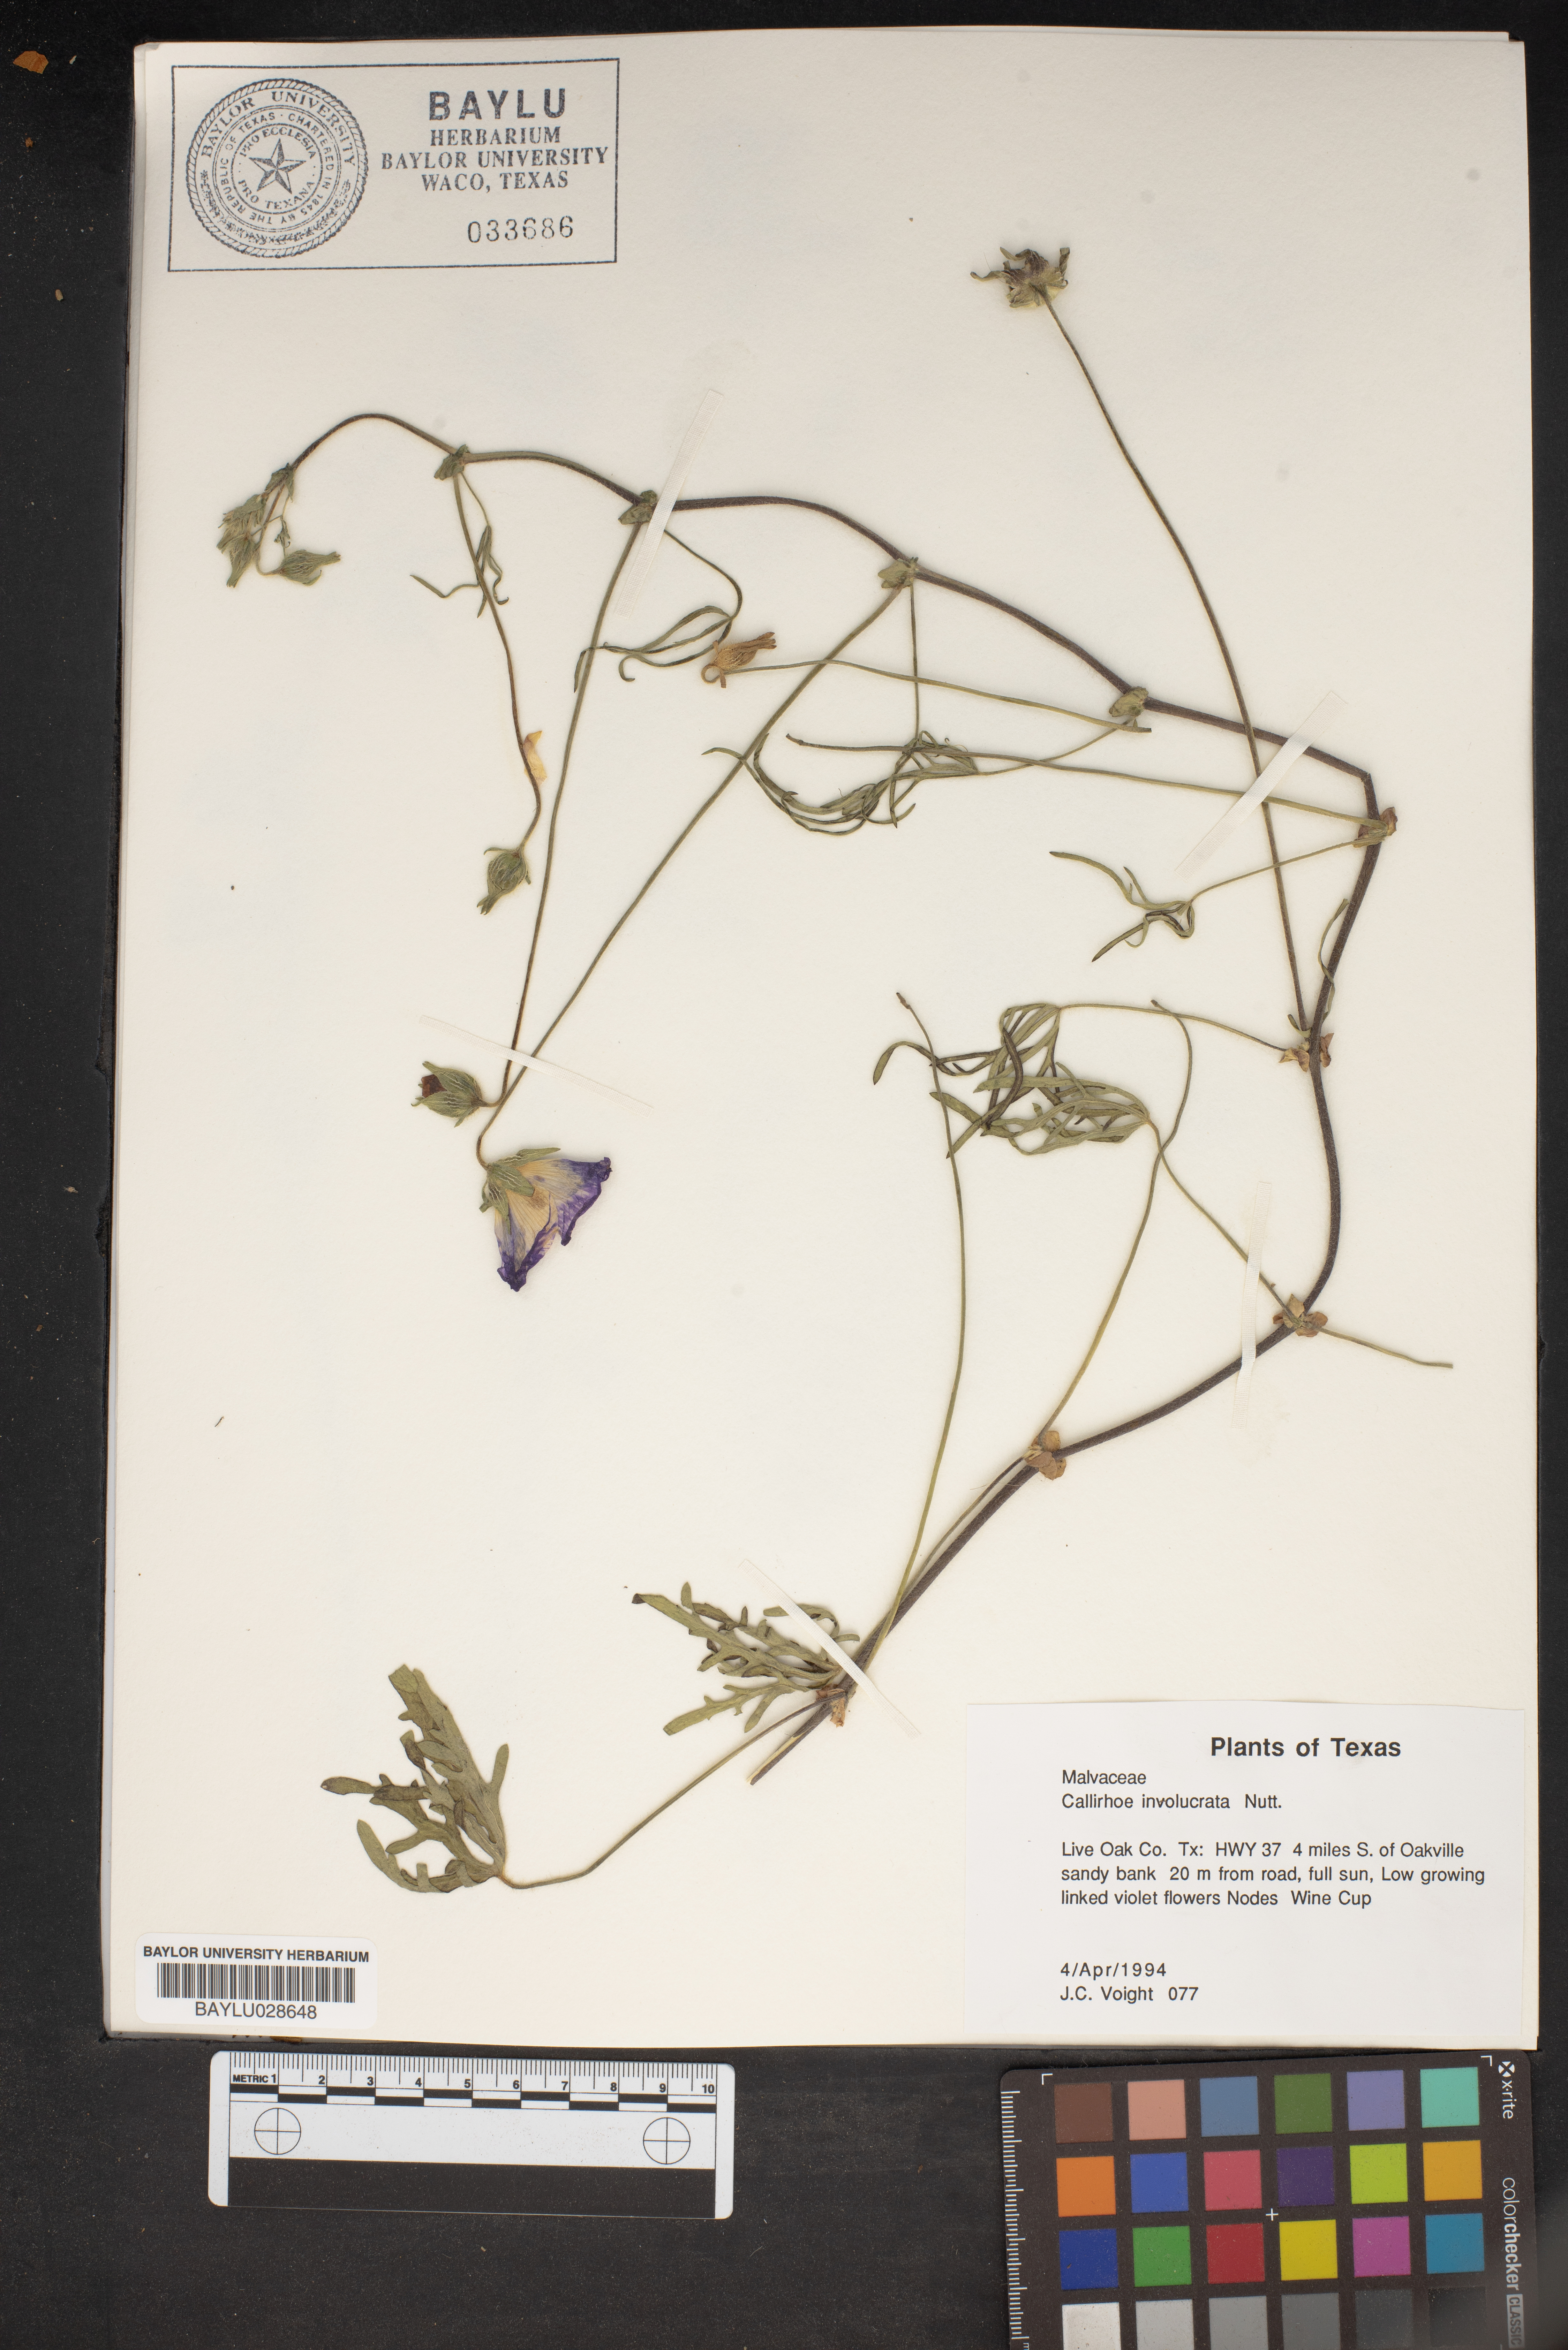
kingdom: Plantae
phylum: Tracheophyta
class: Magnoliopsida
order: Malvales
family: Malvaceae
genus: Callirhoe
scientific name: Callirhoe involucrata
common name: Purple poppy-mallow
